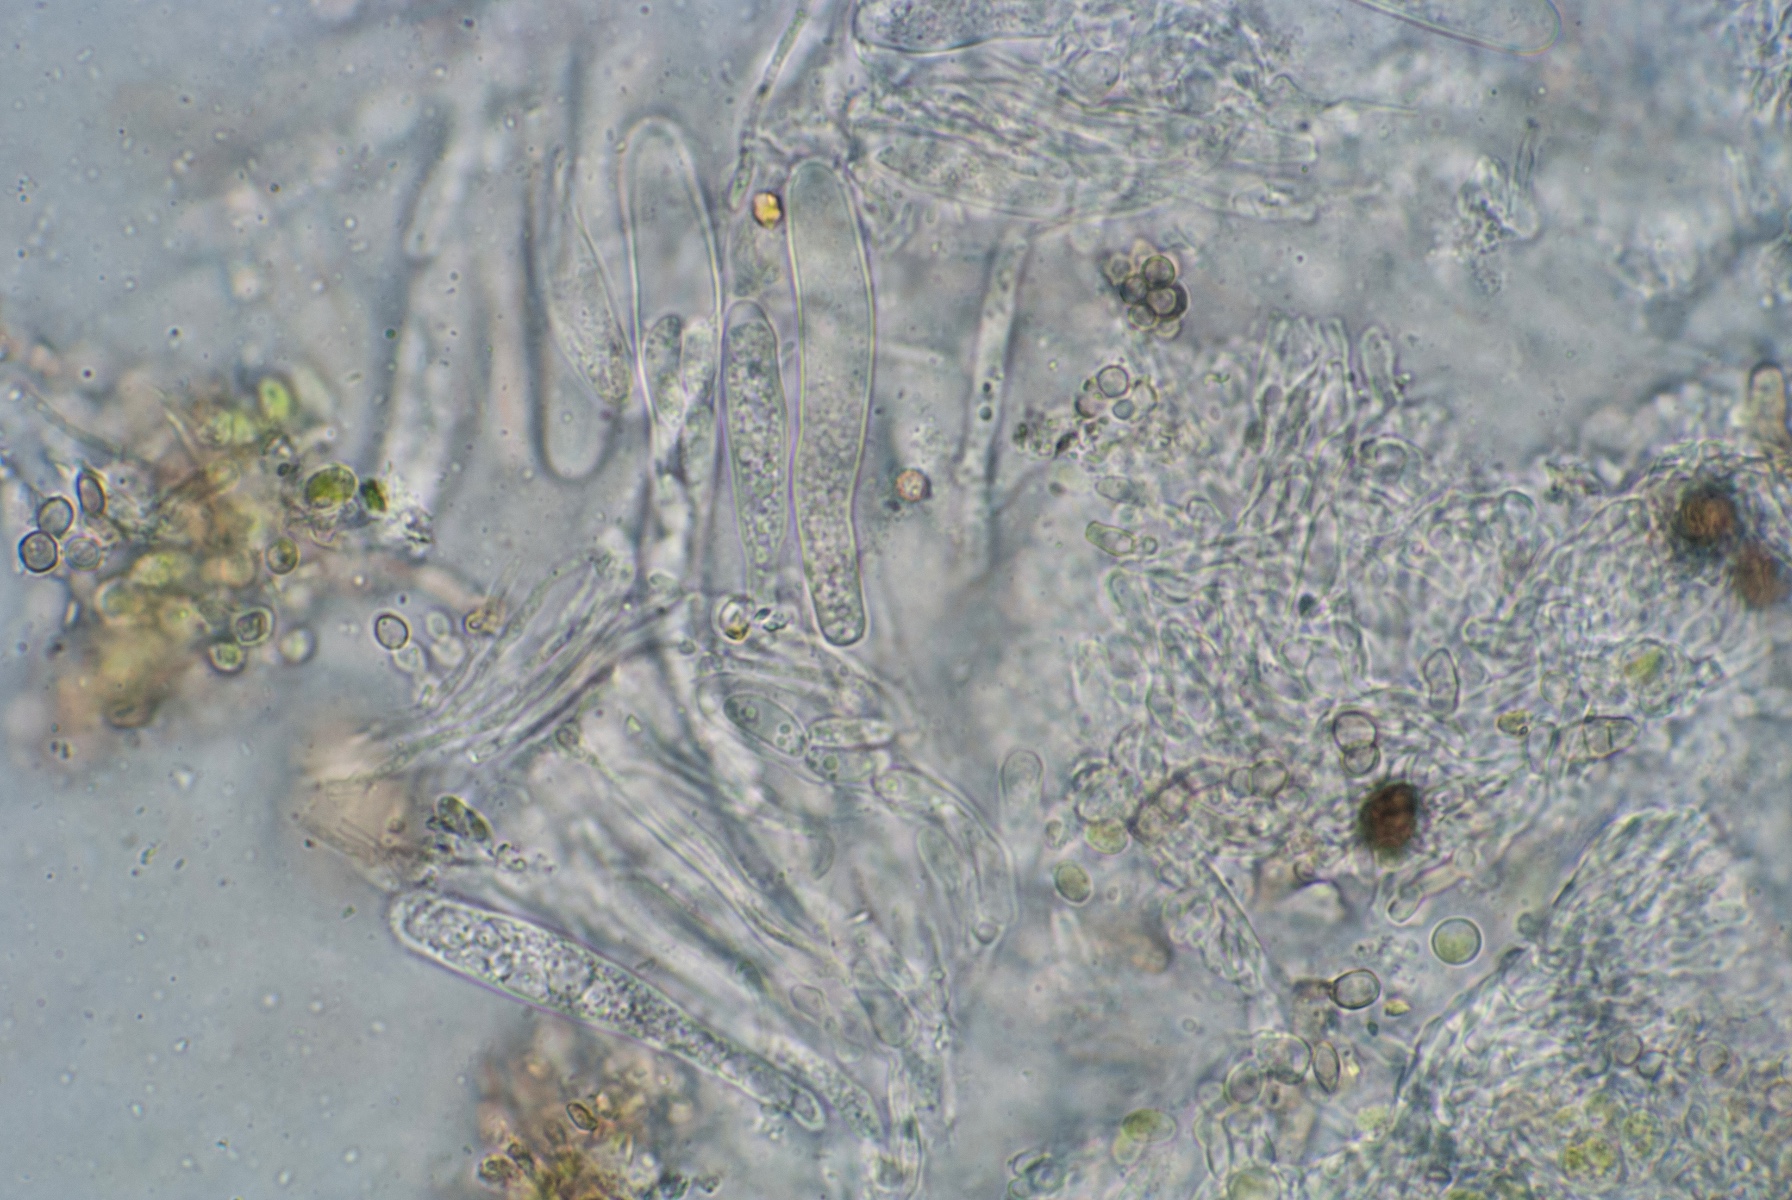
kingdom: Fungi
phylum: Ascomycota
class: Leotiomycetes
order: Helotiales
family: Hyaloscyphaceae
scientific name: Hyaloscyphaceae
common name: frynseskivefamilien
